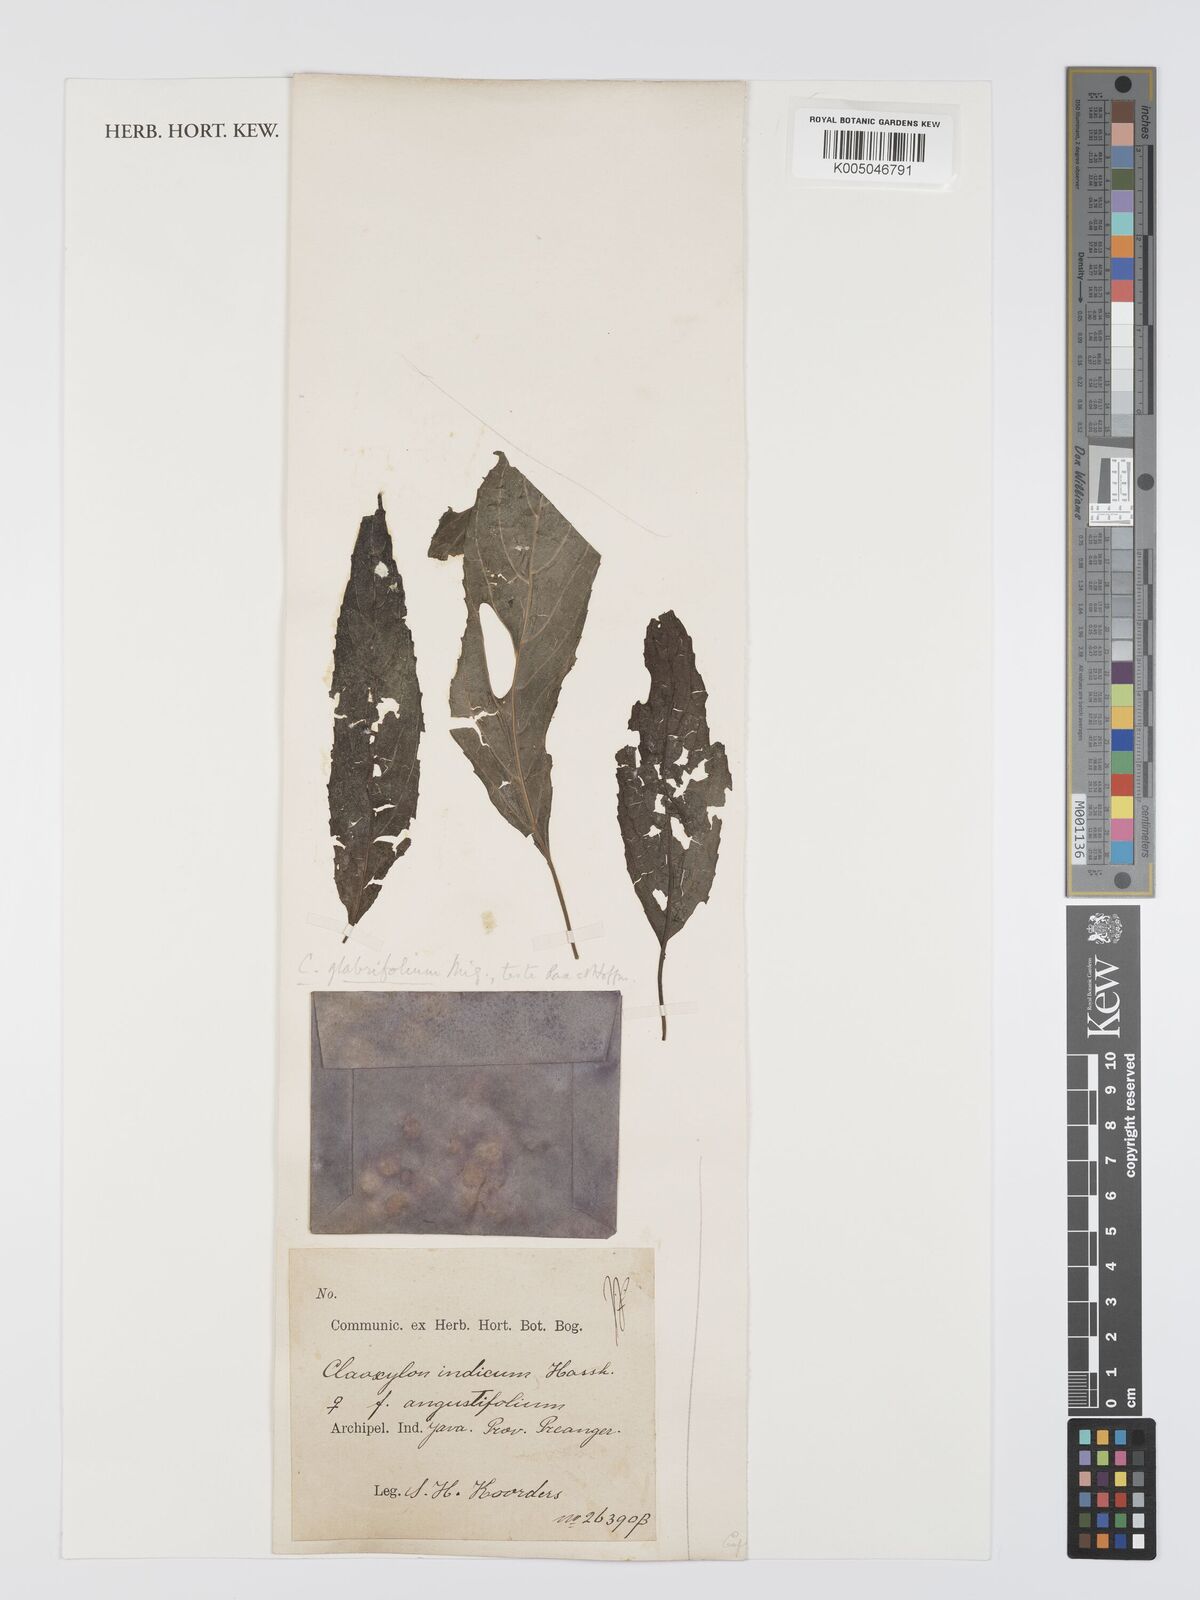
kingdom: Plantae
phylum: Tracheophyta
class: Magnoliopsida
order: Malpighiales
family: Euphorbiaceae
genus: Claoxylon
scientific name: Claoxylon glabrifolium
